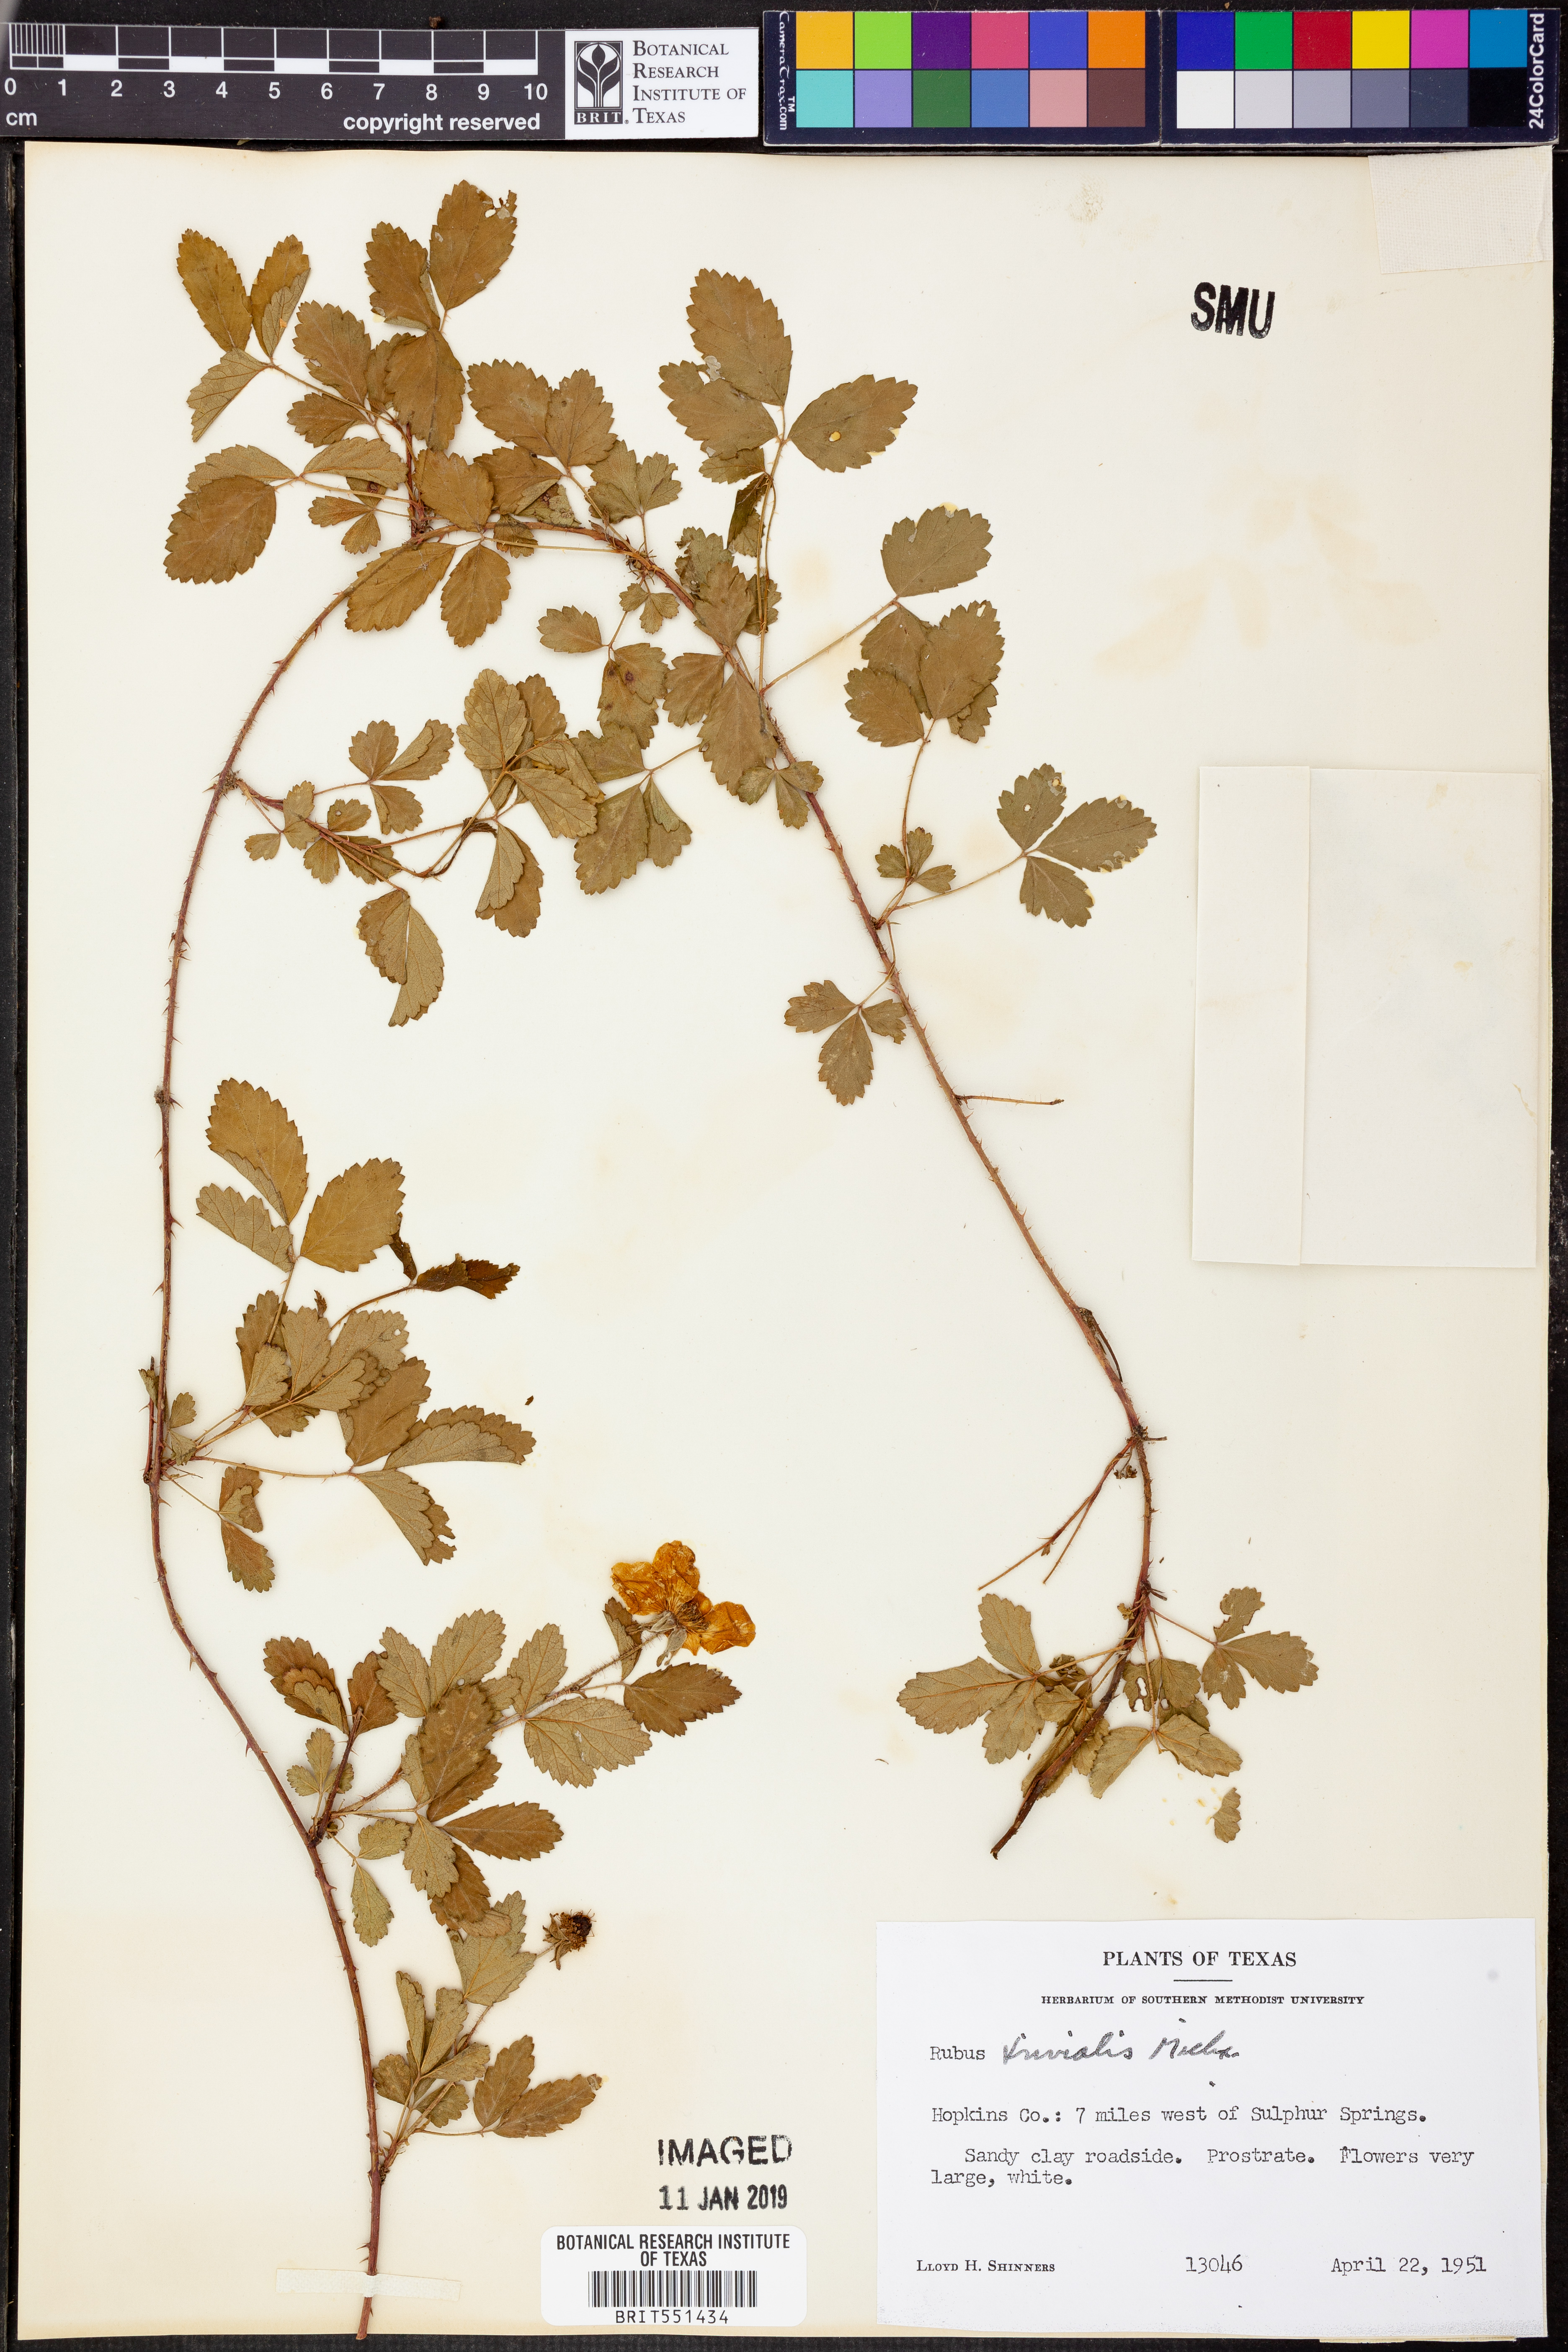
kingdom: Plantae
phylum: Tracheophyta
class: Magnoliopsida
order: Rosales
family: Rosaceae
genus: Rubus
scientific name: Rubus trivialis
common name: Southern dewberry
